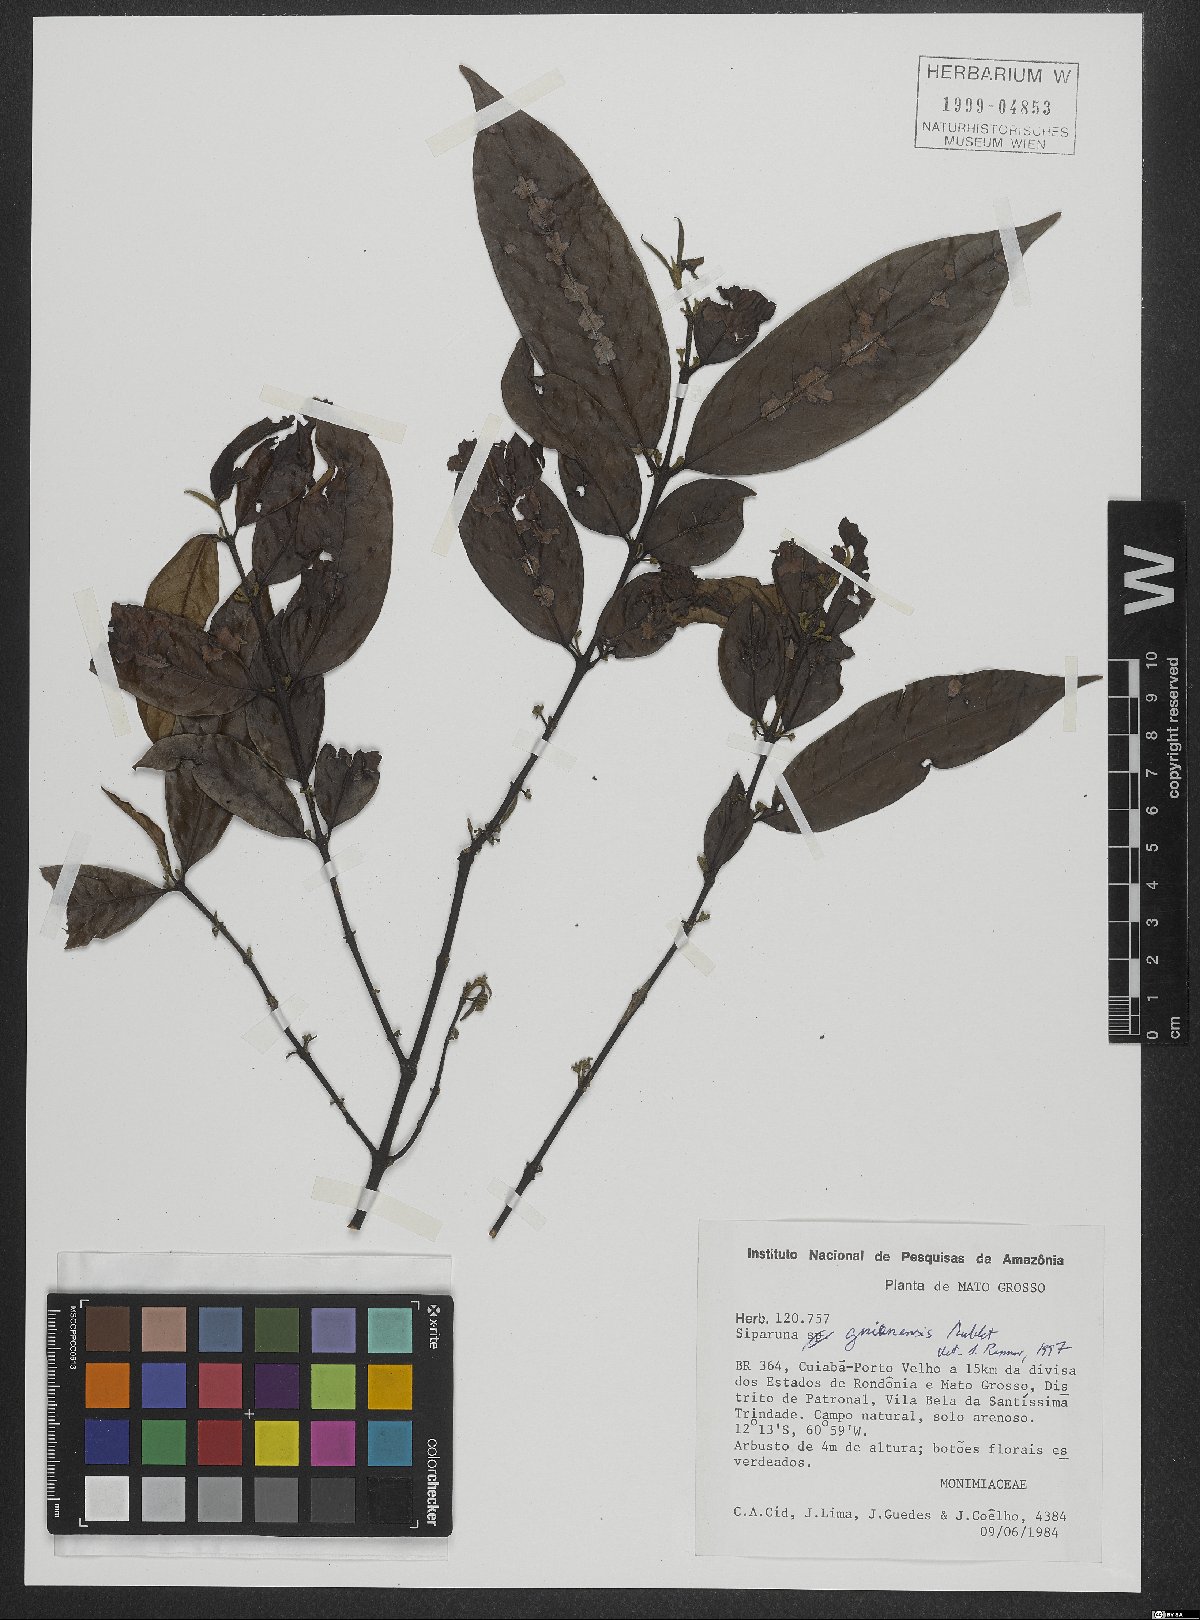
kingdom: Plantae
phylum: Tracheophyta
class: Magnoliopsida
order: Laurales
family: Siparunaceae
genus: Siparuna
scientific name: Siparuna guianensis
